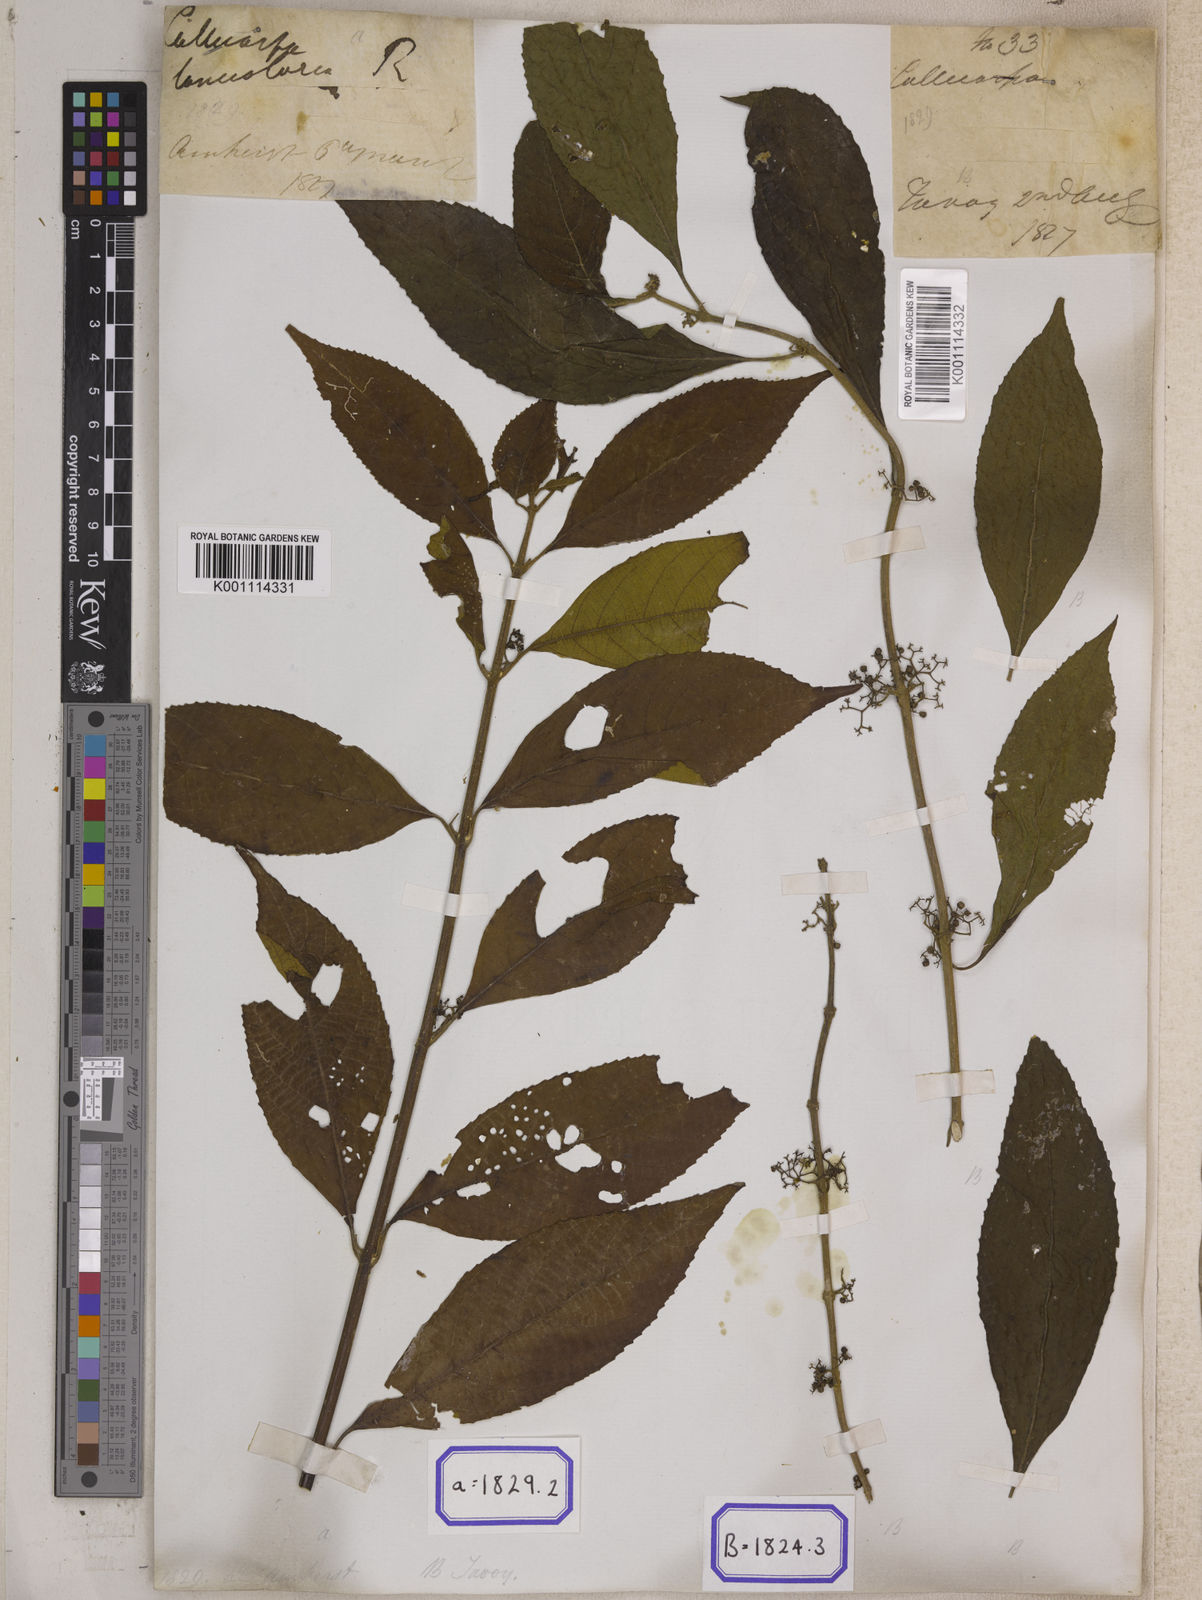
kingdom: Plantae
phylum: Tracheophyta
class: Magnoliopsida
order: Lamiales
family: Lamiaceae
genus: Callicarpa
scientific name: Callicarpa
